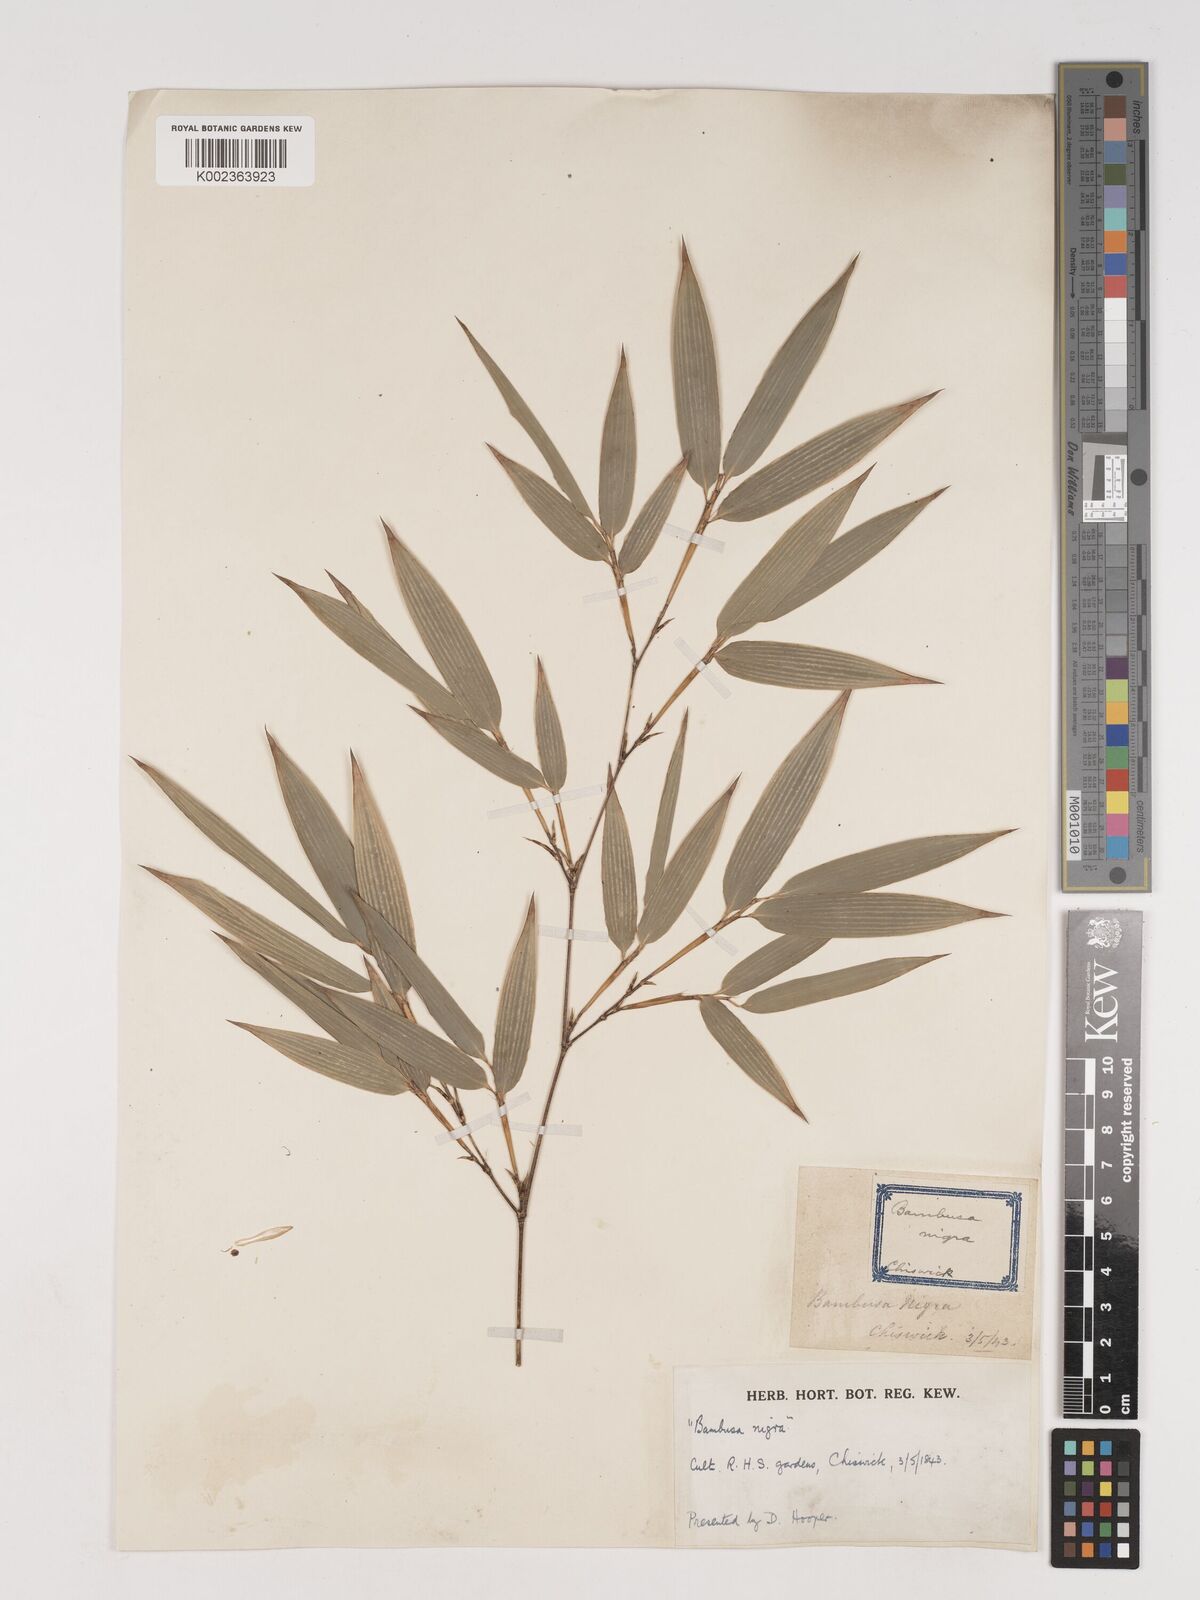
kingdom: Plantae
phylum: Tracheophyta
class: Liliopsida
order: Poales
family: Poaceae
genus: Phyllostachys
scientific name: Phyllostachys nigra
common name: Black bamboo
